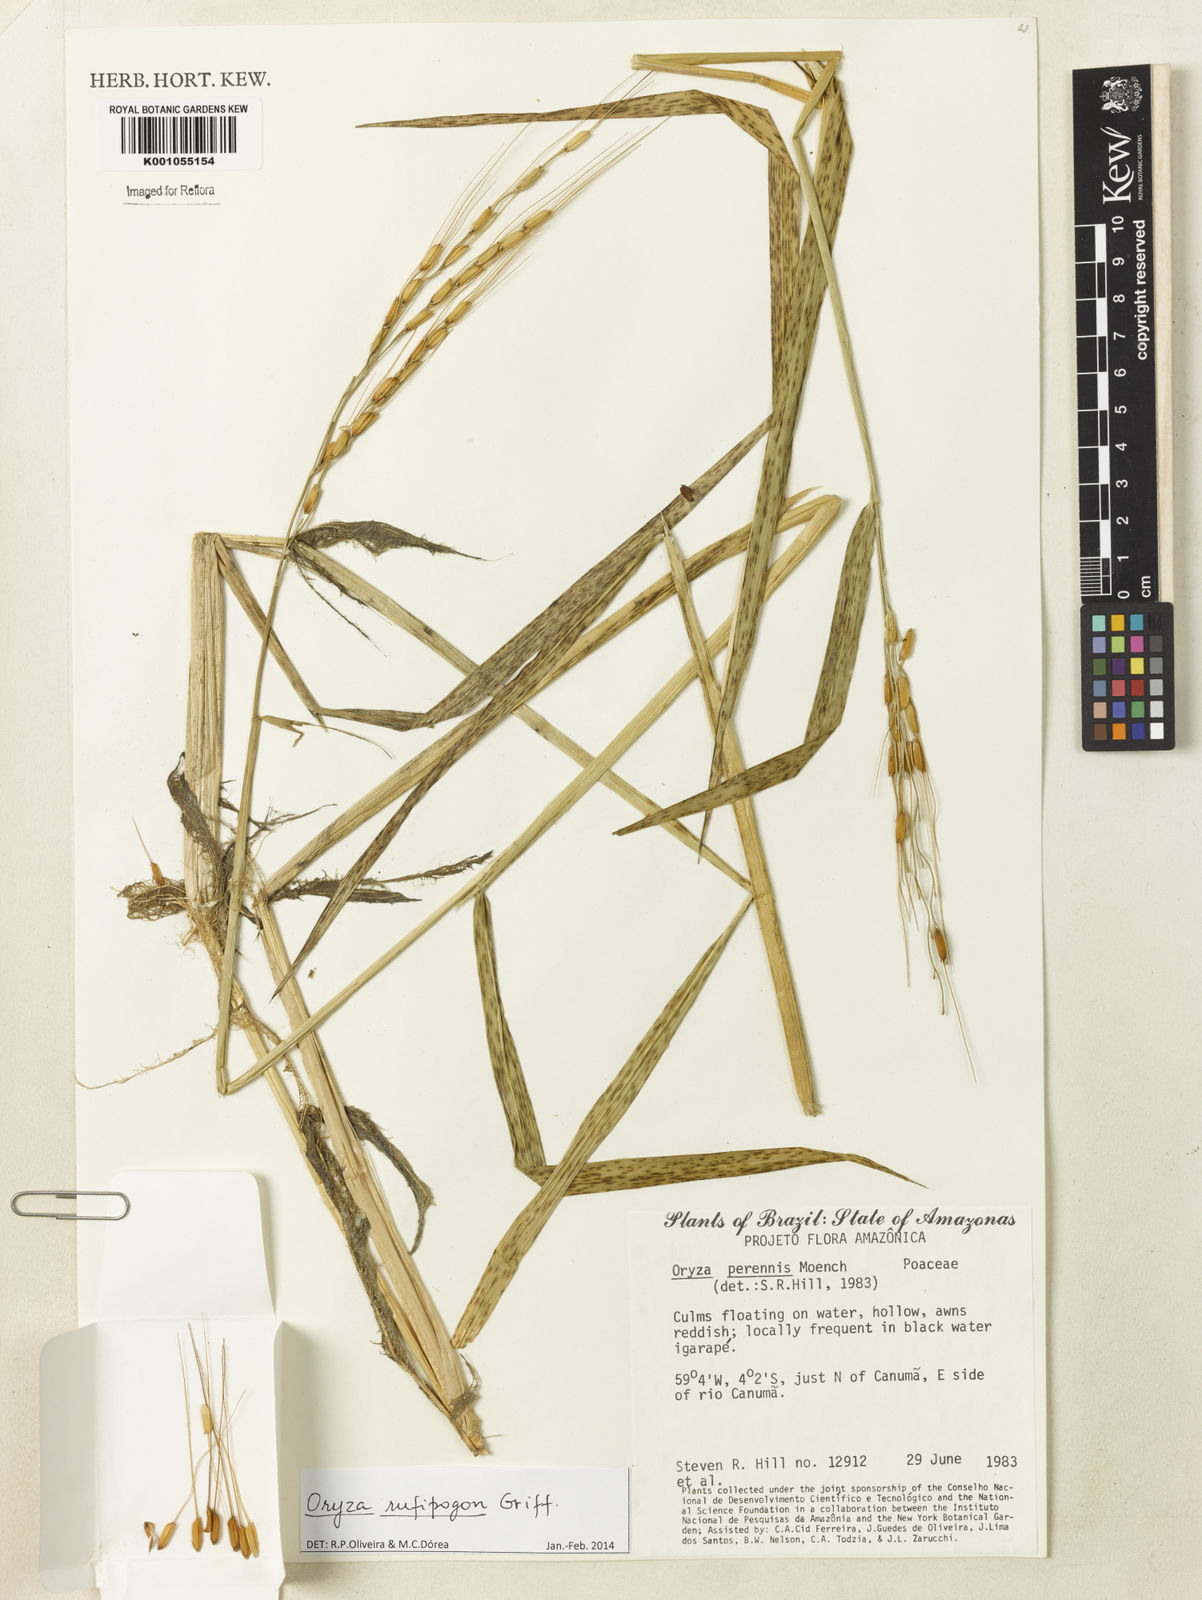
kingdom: Plantae
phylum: Tracheophyta
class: Liliopsida
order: Poales
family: Poaceae
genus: Oryza
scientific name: Oryza rufipogon
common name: Red rice
